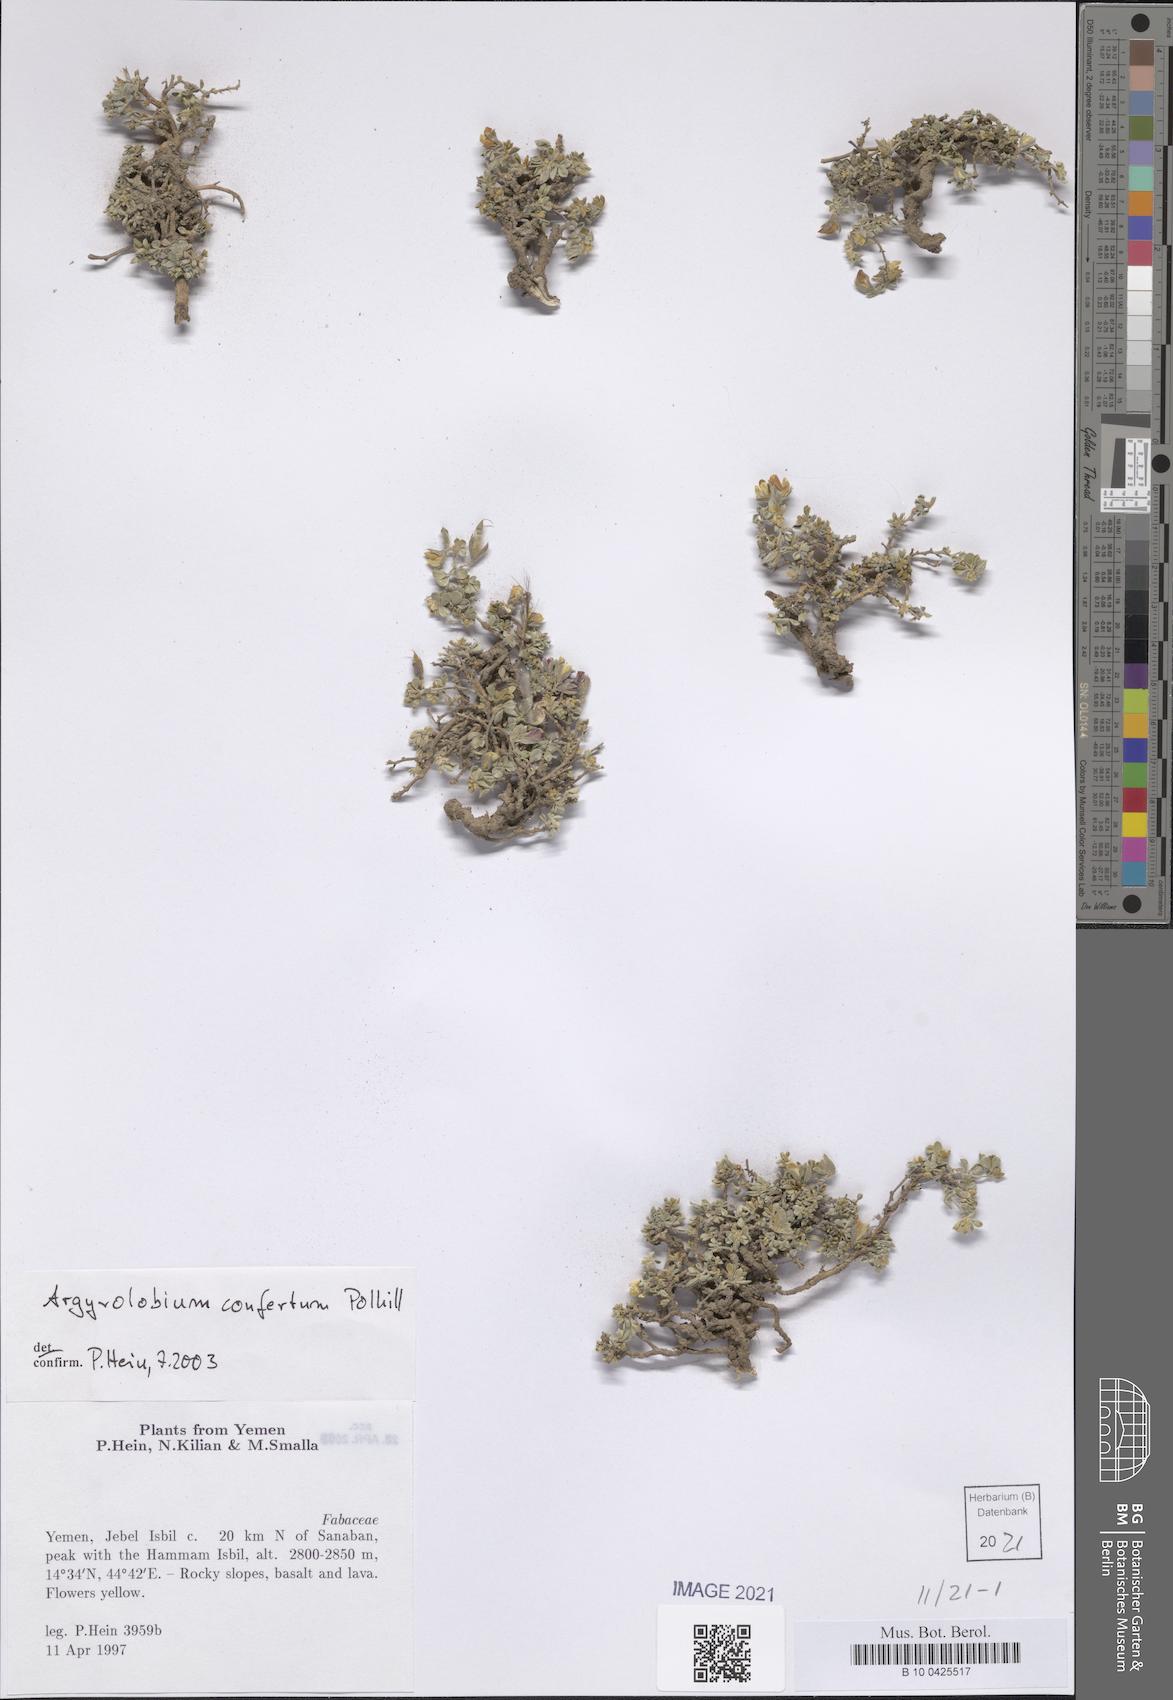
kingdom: Plantae
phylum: Tracheophyta
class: Magnoliopsida
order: Fabales
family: Fabaceae
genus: Argyrolobium
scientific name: Argyrolobium confertum
